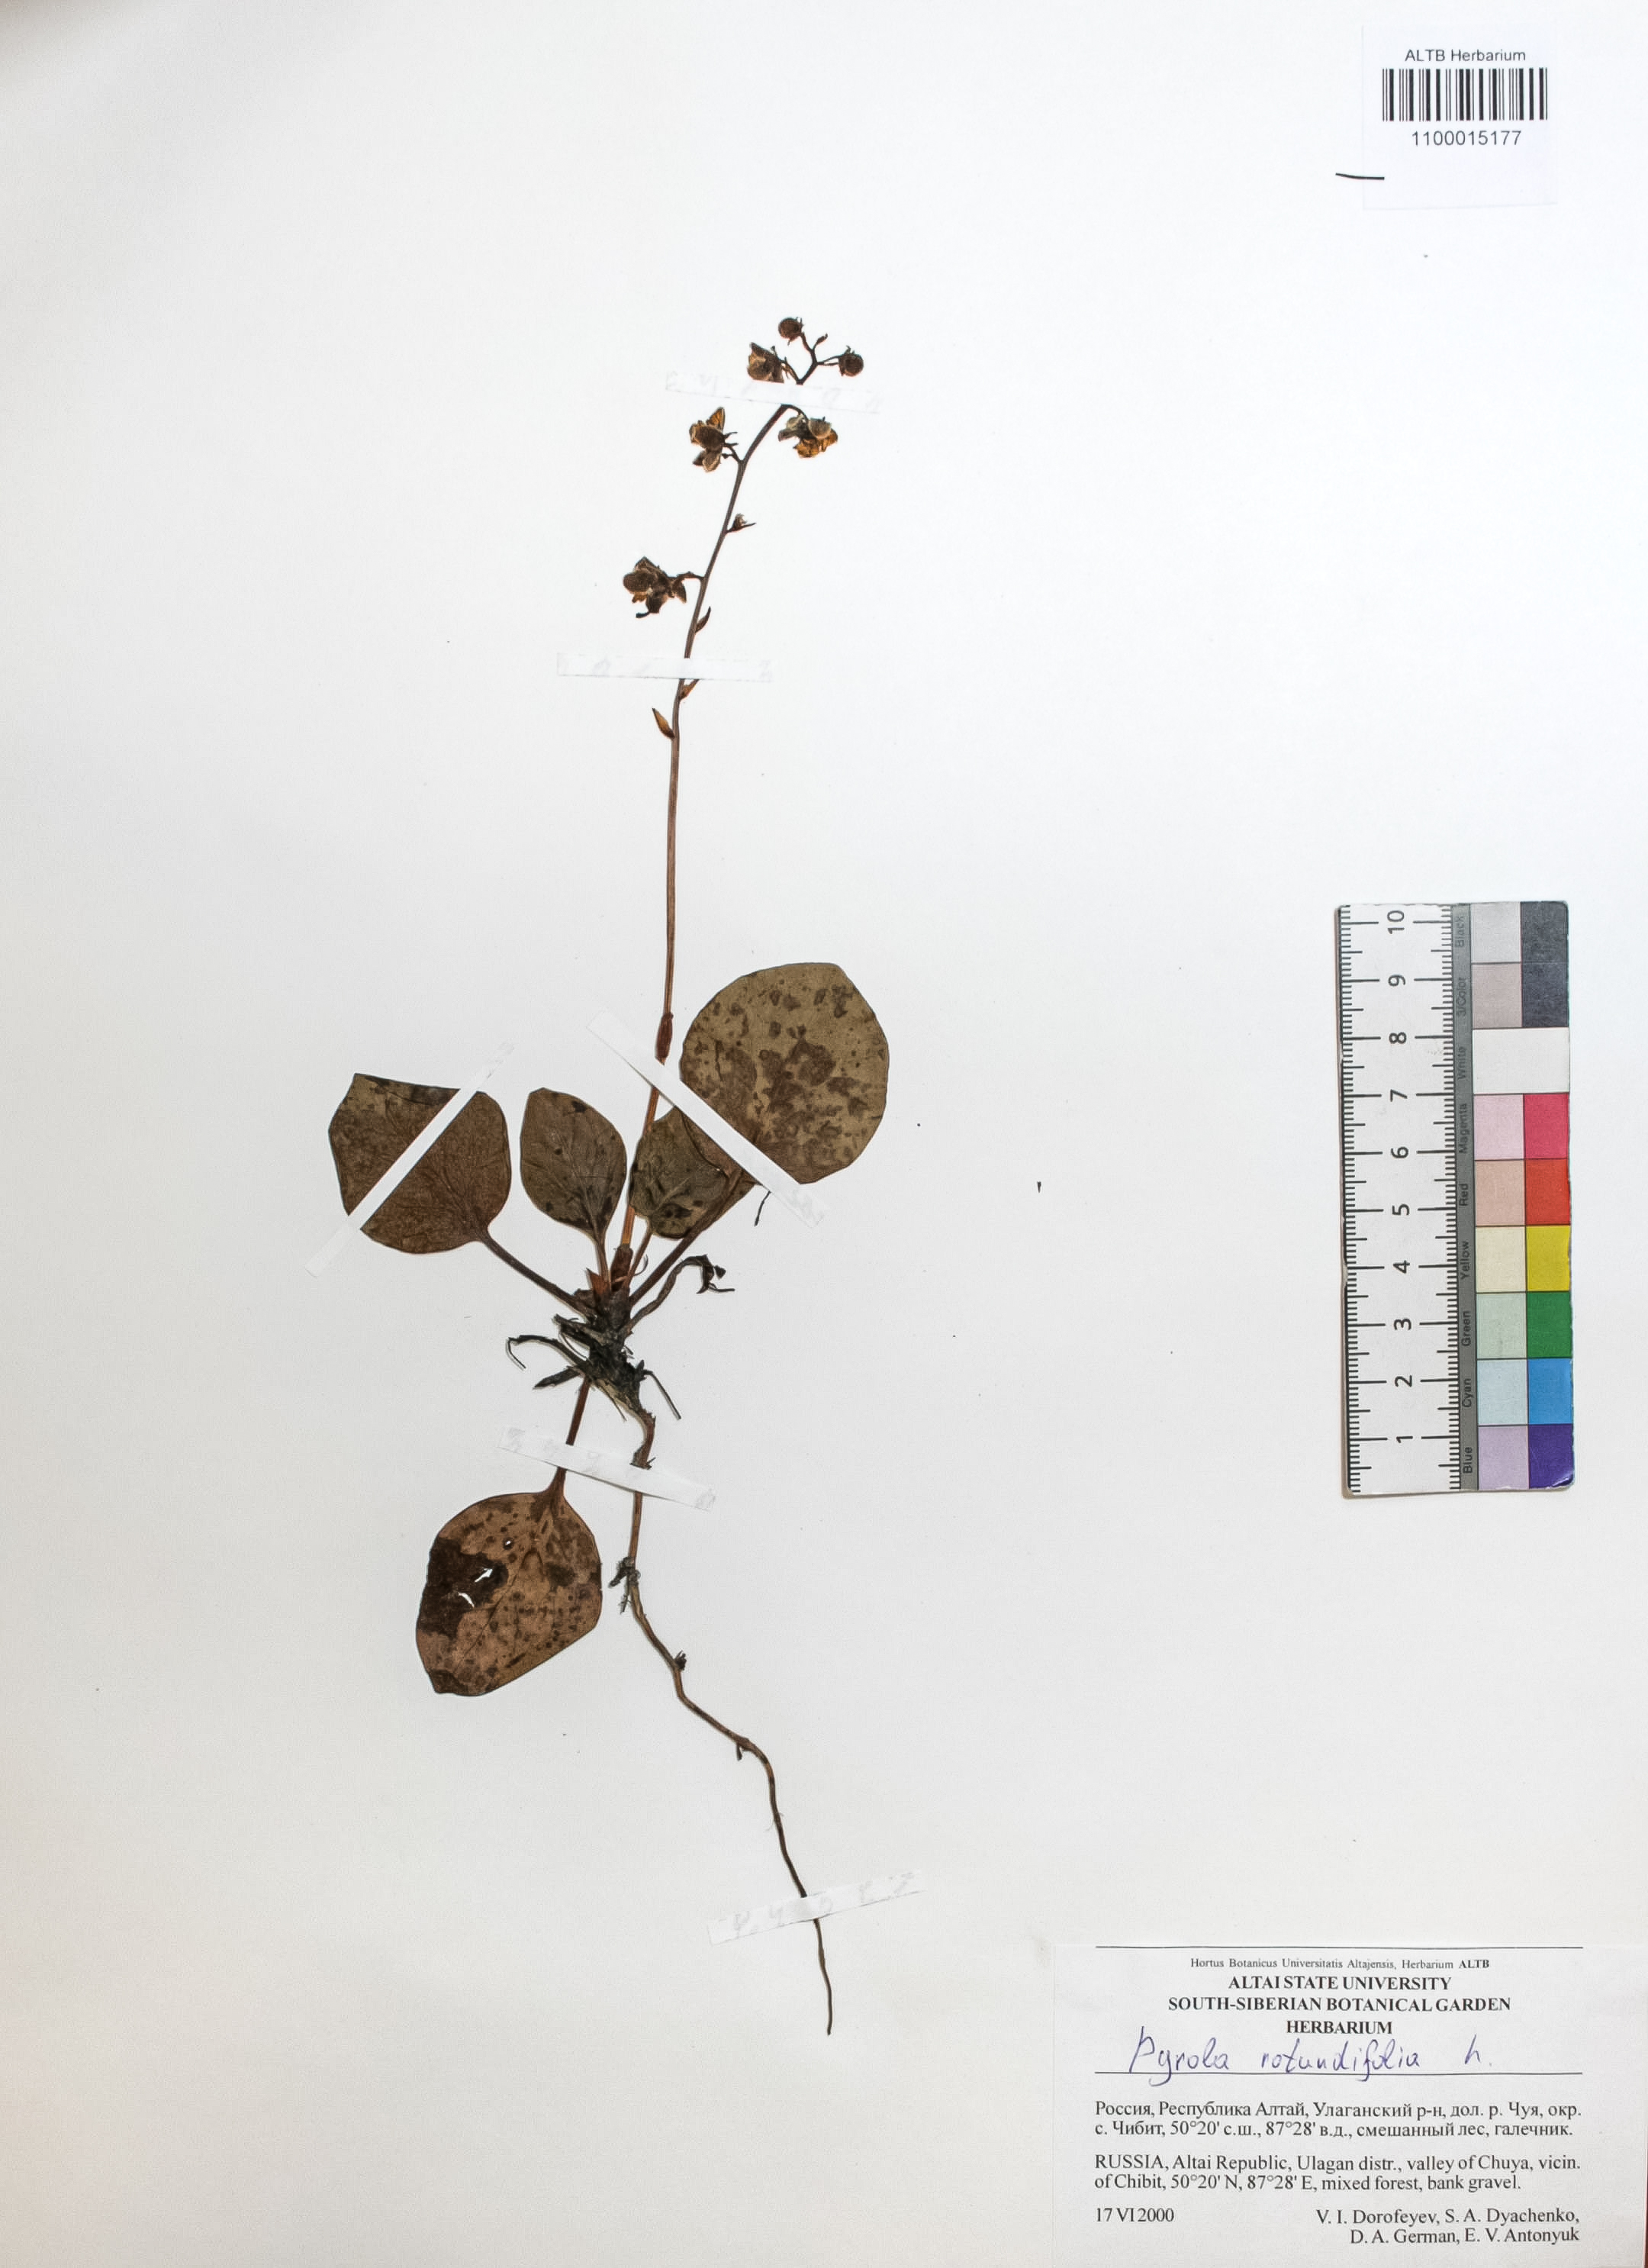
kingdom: Plantae
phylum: Tracheophyta
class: Magnoliopsida
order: Ericales
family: Ericaceae
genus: Pyrola
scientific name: Pyrola rotundifolia
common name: Round-leaved wintergreen
